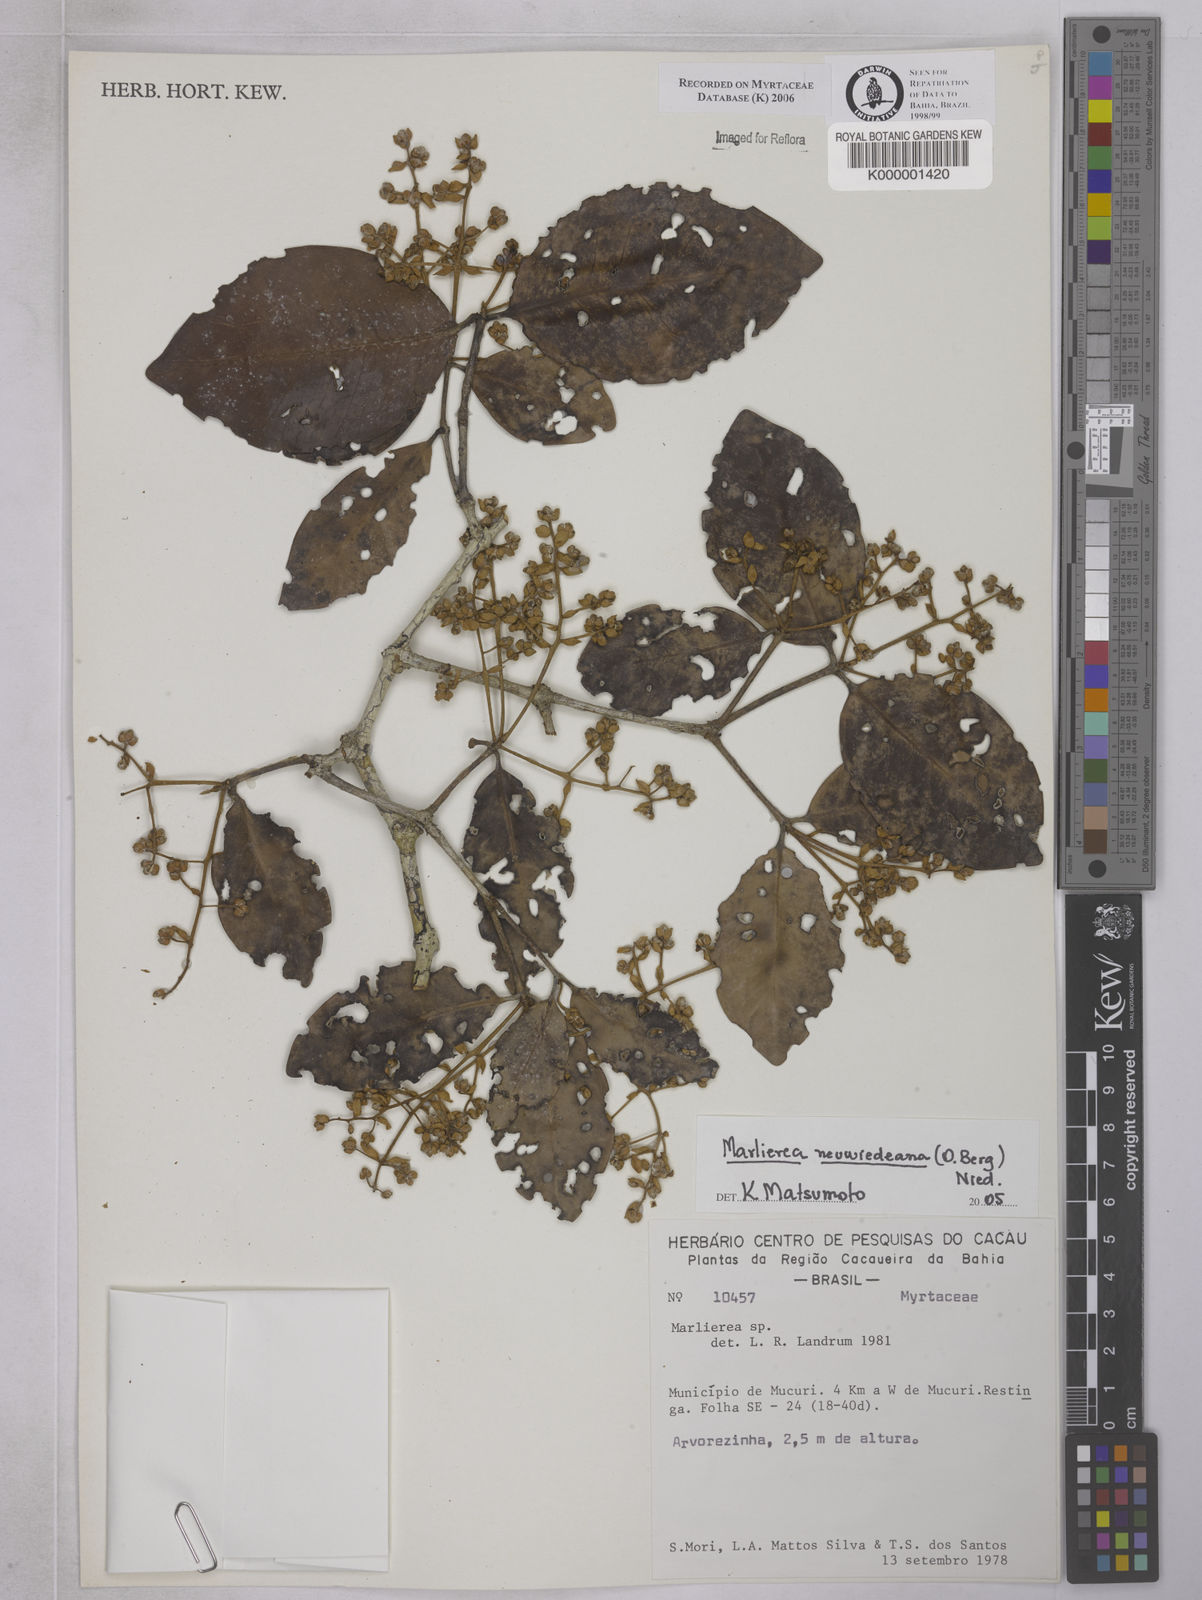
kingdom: Plantae
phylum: Tracheophyta
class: Magnoliopsida
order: Myrtales
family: Myrtaceae
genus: Marlierea
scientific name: Marlierea
